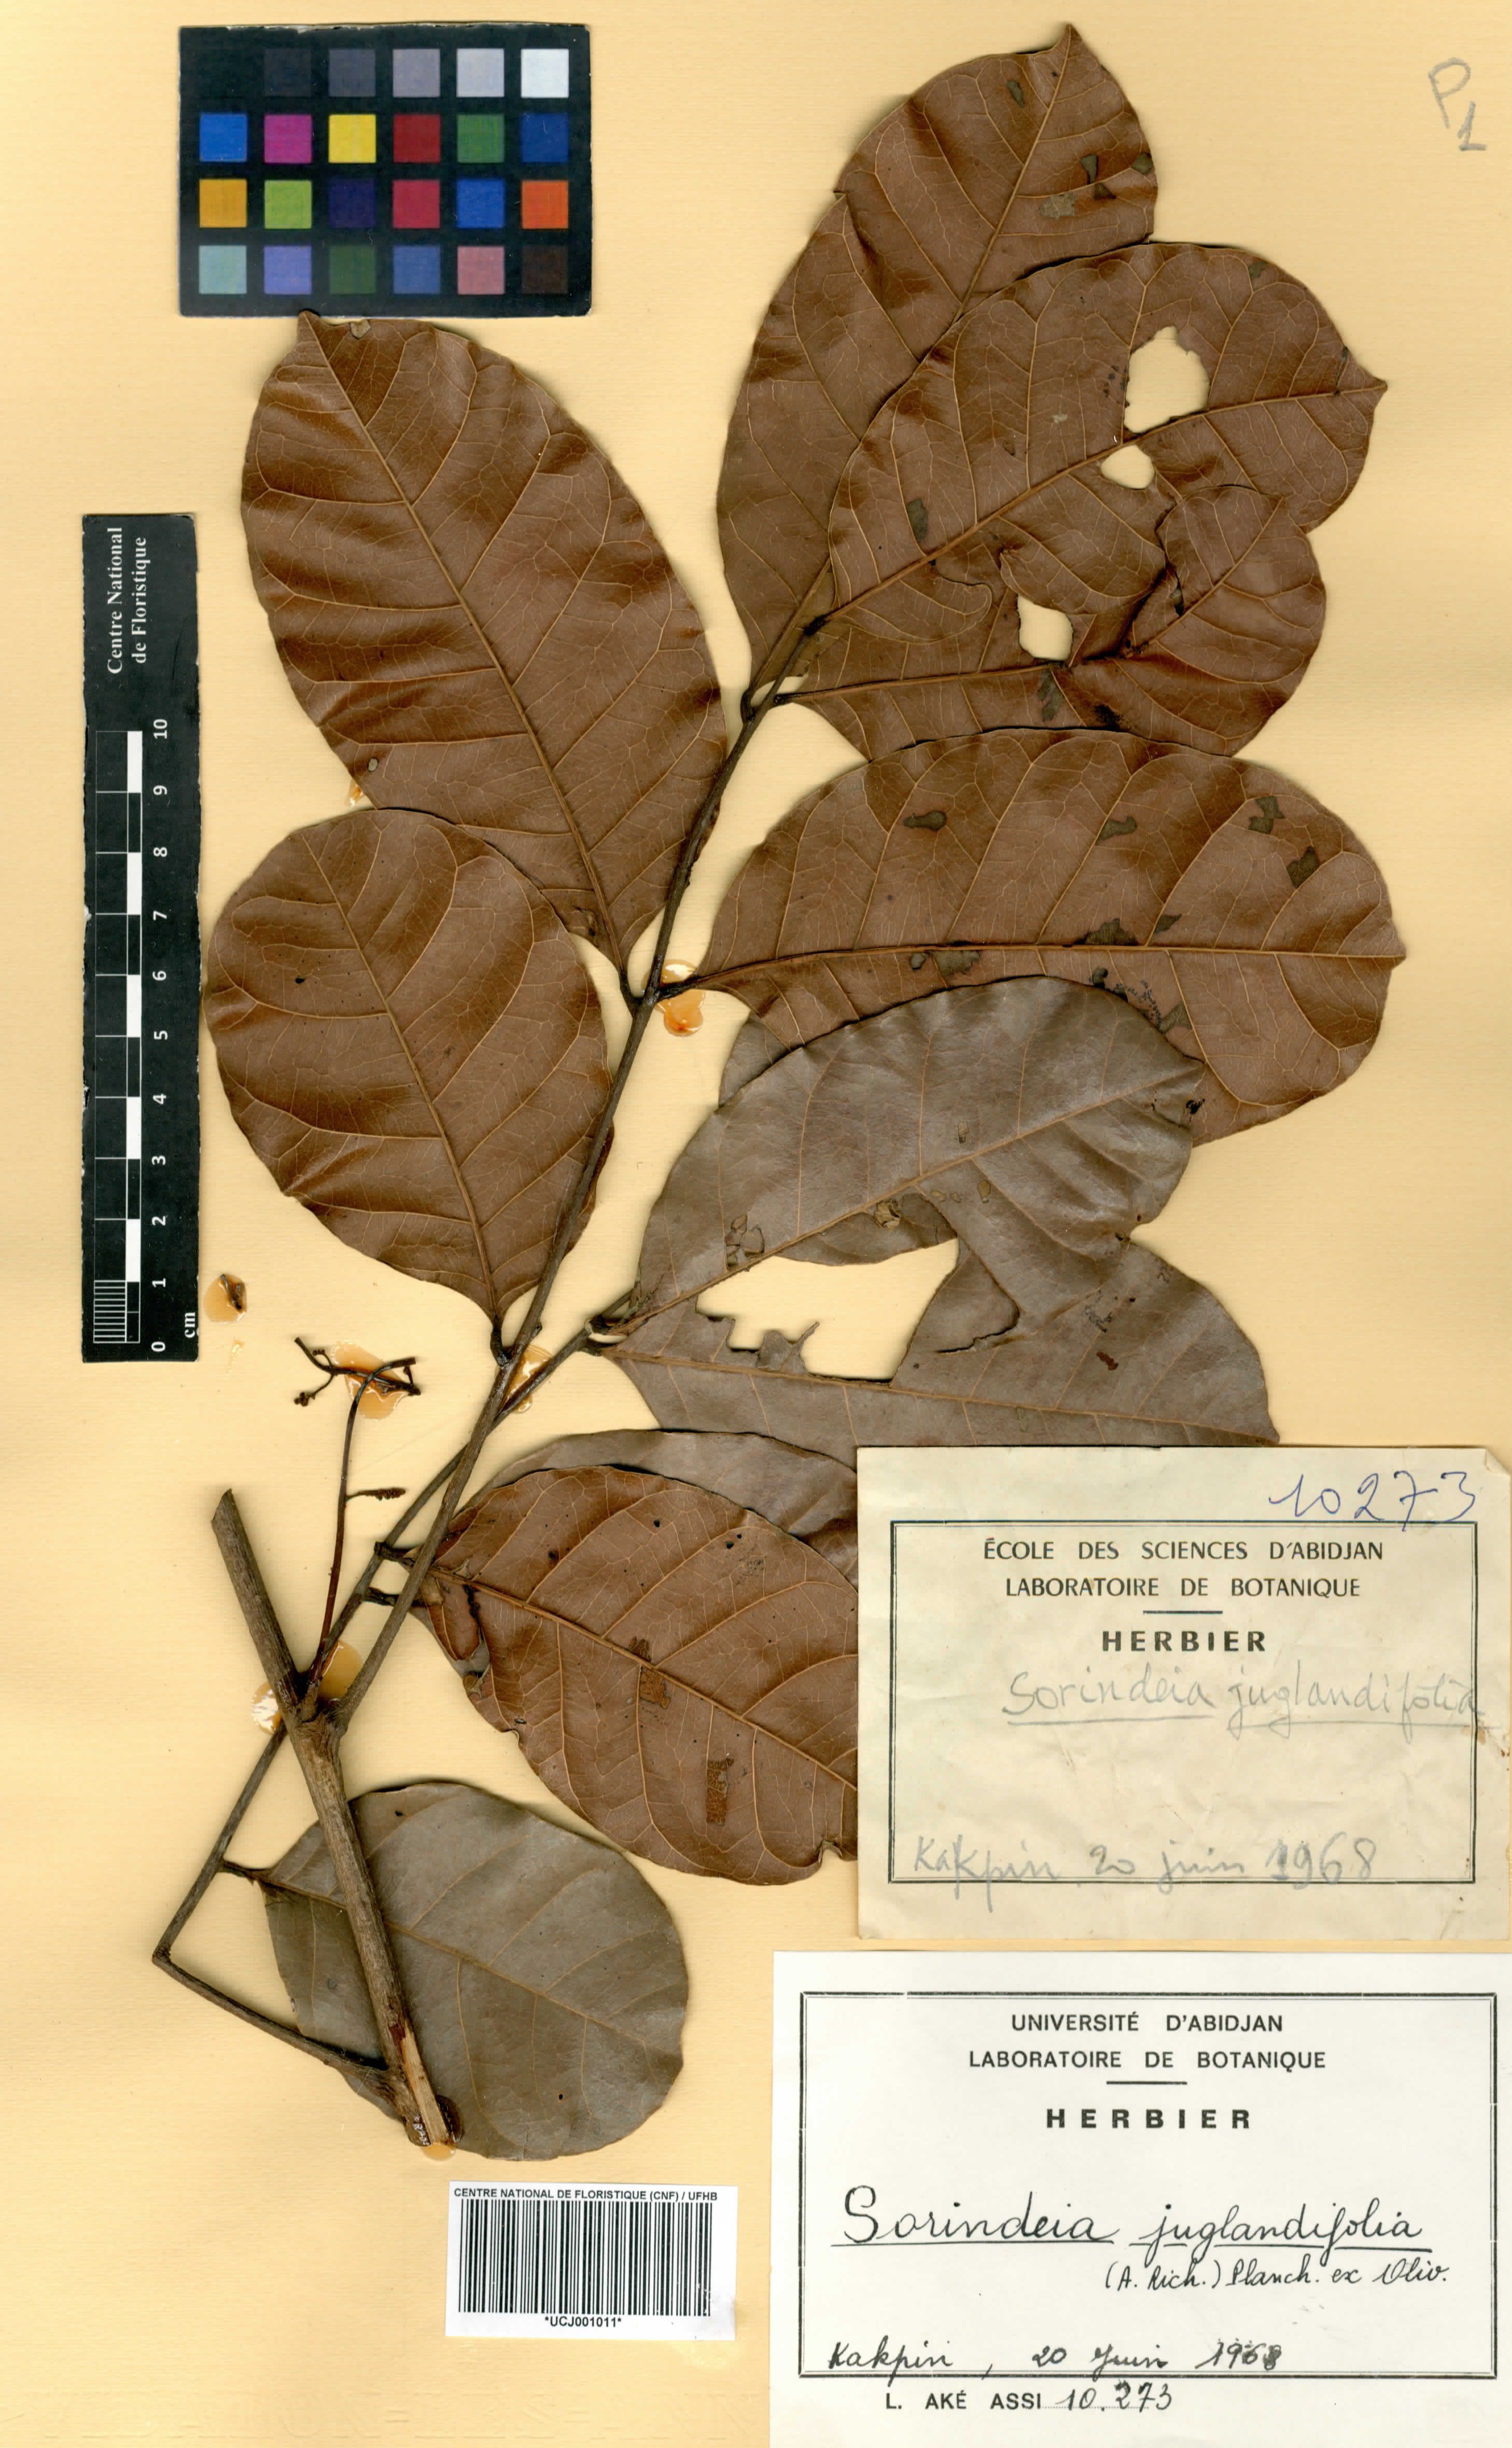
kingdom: Plantae
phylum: Tracheophyta
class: Magnoliopsida
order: Sapindales
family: Anacardiaceae
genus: Sorindeia
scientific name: Sorindeia juglandifolia
